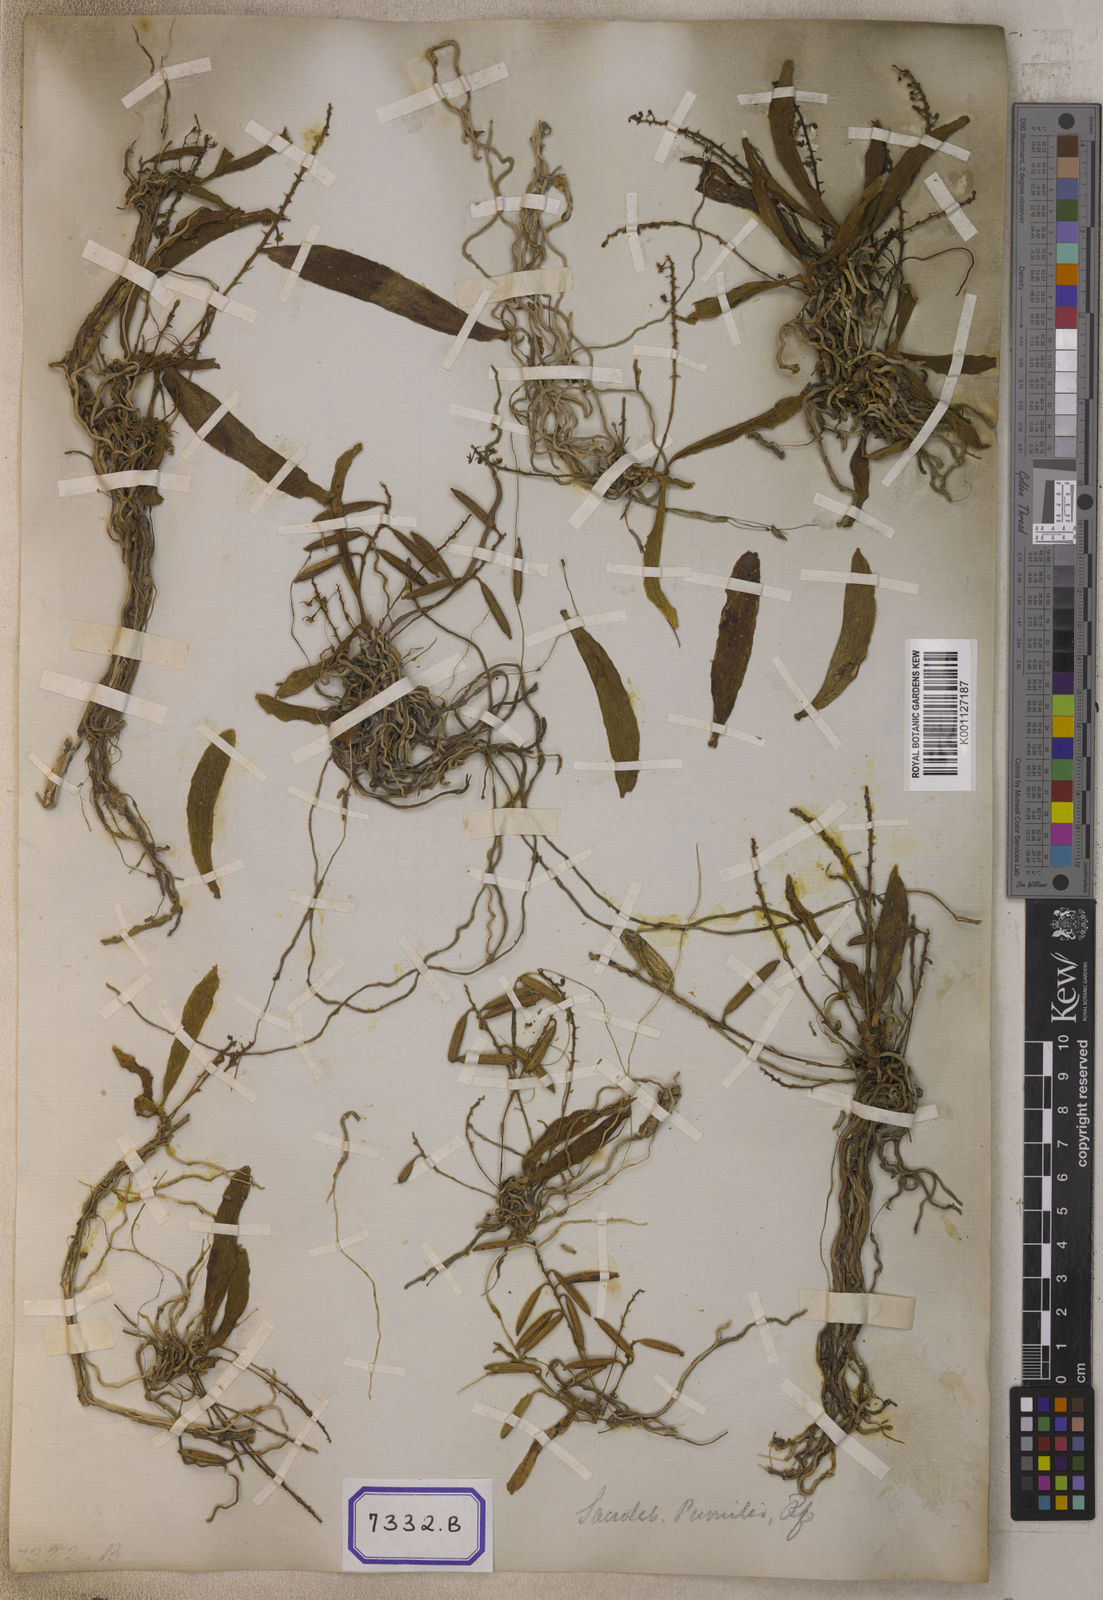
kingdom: Plantae
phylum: Tracheophyta
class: Liliopsida
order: Asparagales
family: Orchidaceae
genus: Saccolabiopsis
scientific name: Saccolabiopsis pusilla
